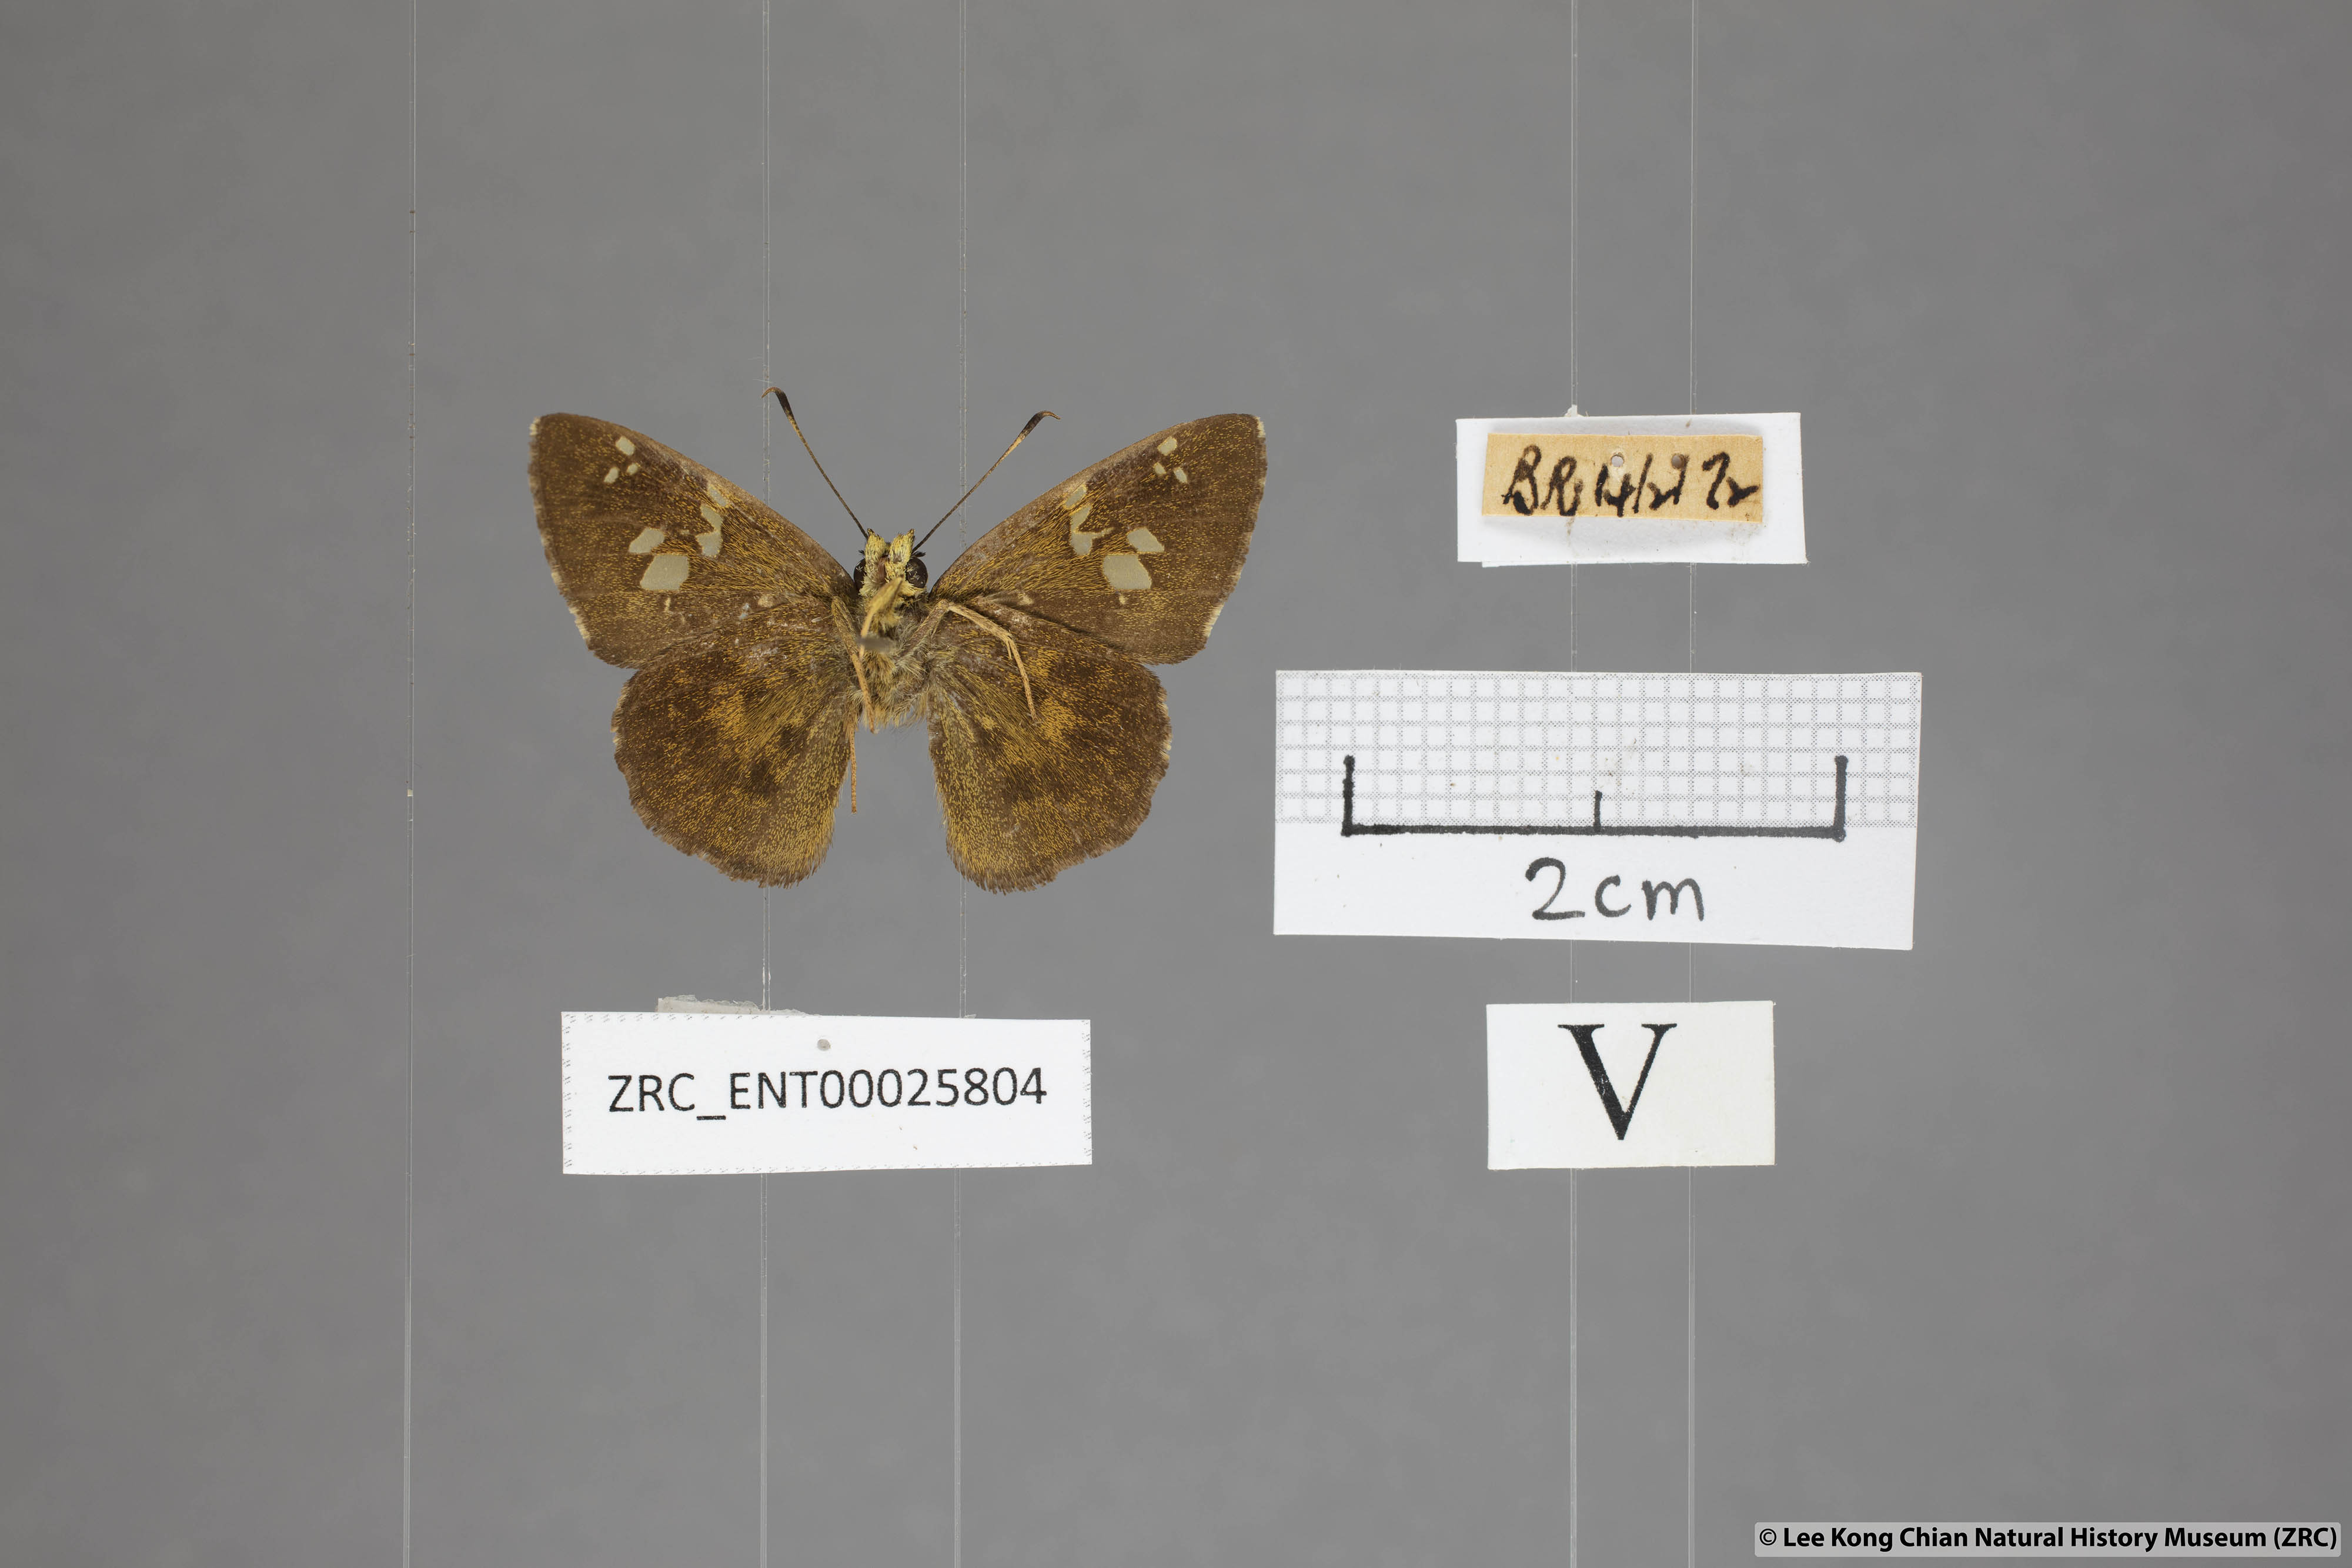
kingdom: Animalia
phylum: Arthropoda
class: Insecta
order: Lepidoptera
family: Hesperiidae
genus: Pseudocoladenia
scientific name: Pseudocoladenia dan
